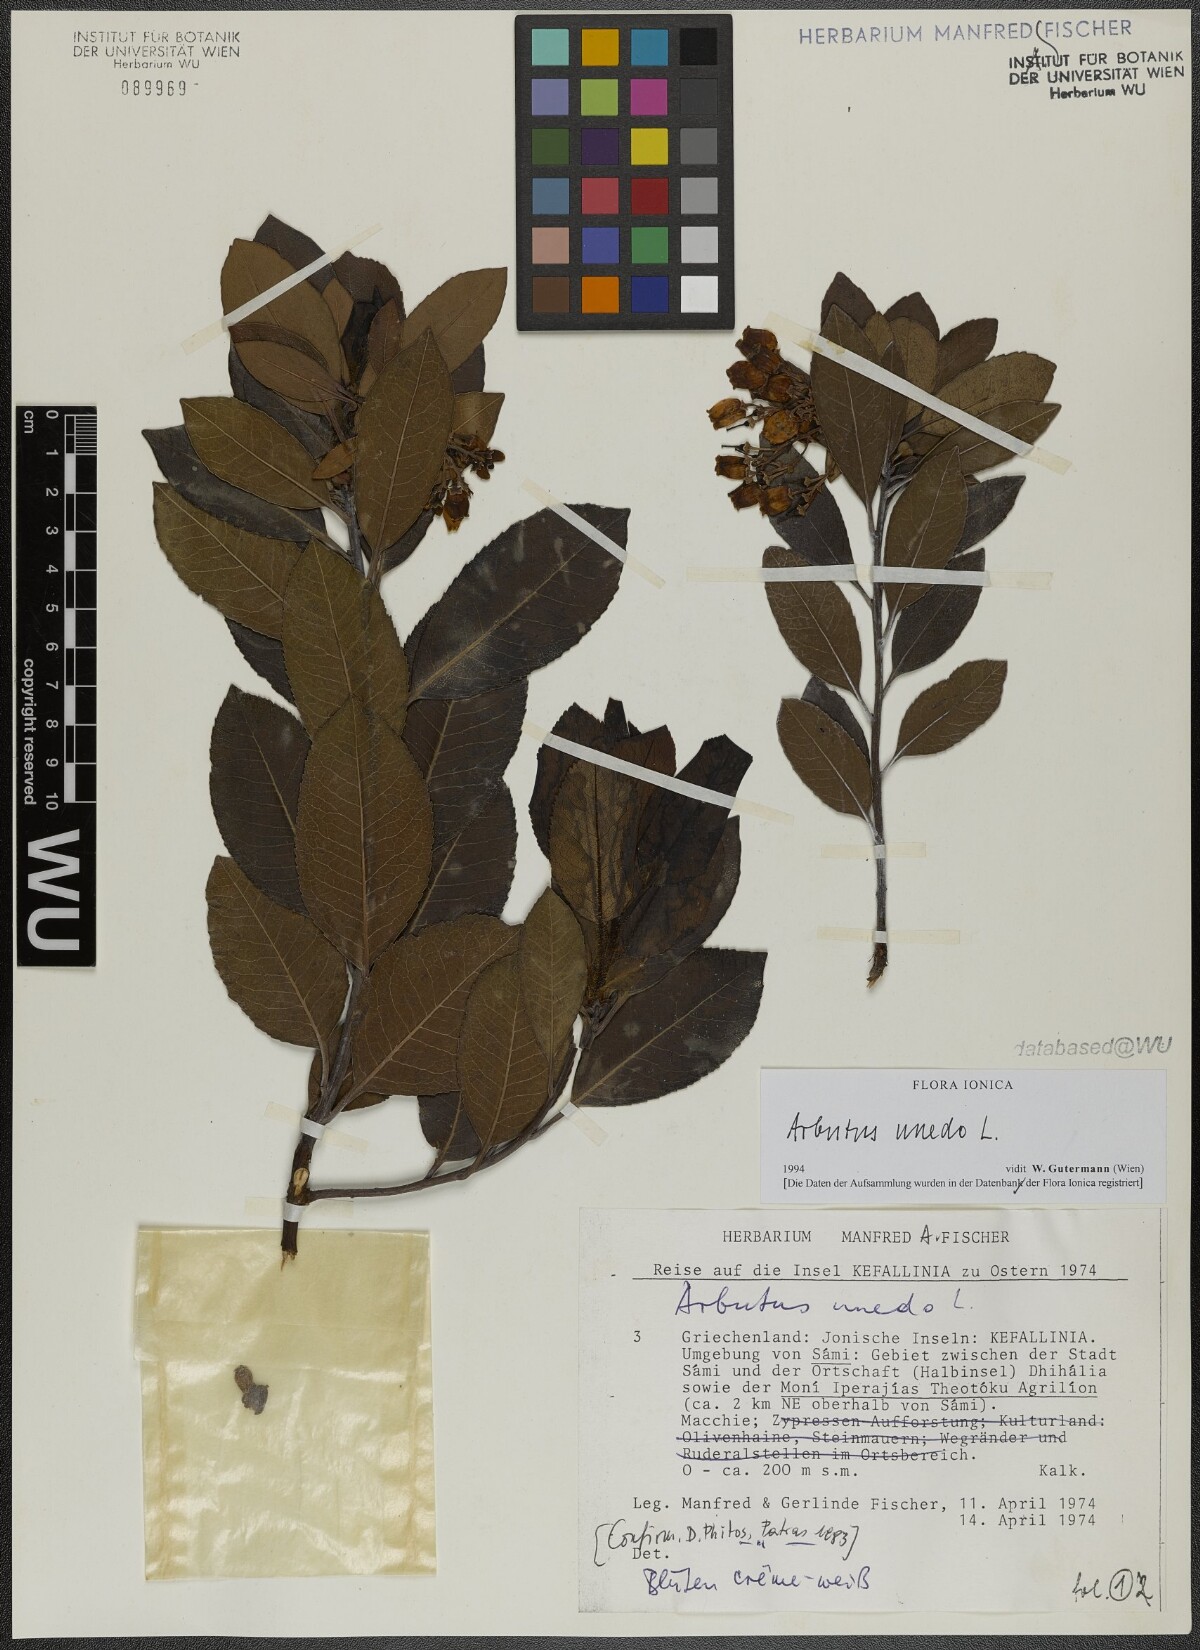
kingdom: Plantae
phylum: Tracheophyta
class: Magnoliopsida
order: Ericales
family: Ericaceae
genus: Arbutus
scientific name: Arbutus unedo
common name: Strawberry-tree
